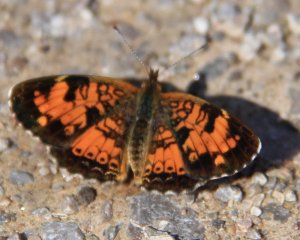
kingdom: Animalia
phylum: Arthropoda
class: Insecta
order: Lepidoptera
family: Nymphalidae
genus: Phyciodes
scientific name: Phyciodes tharos
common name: Northern Crescent
